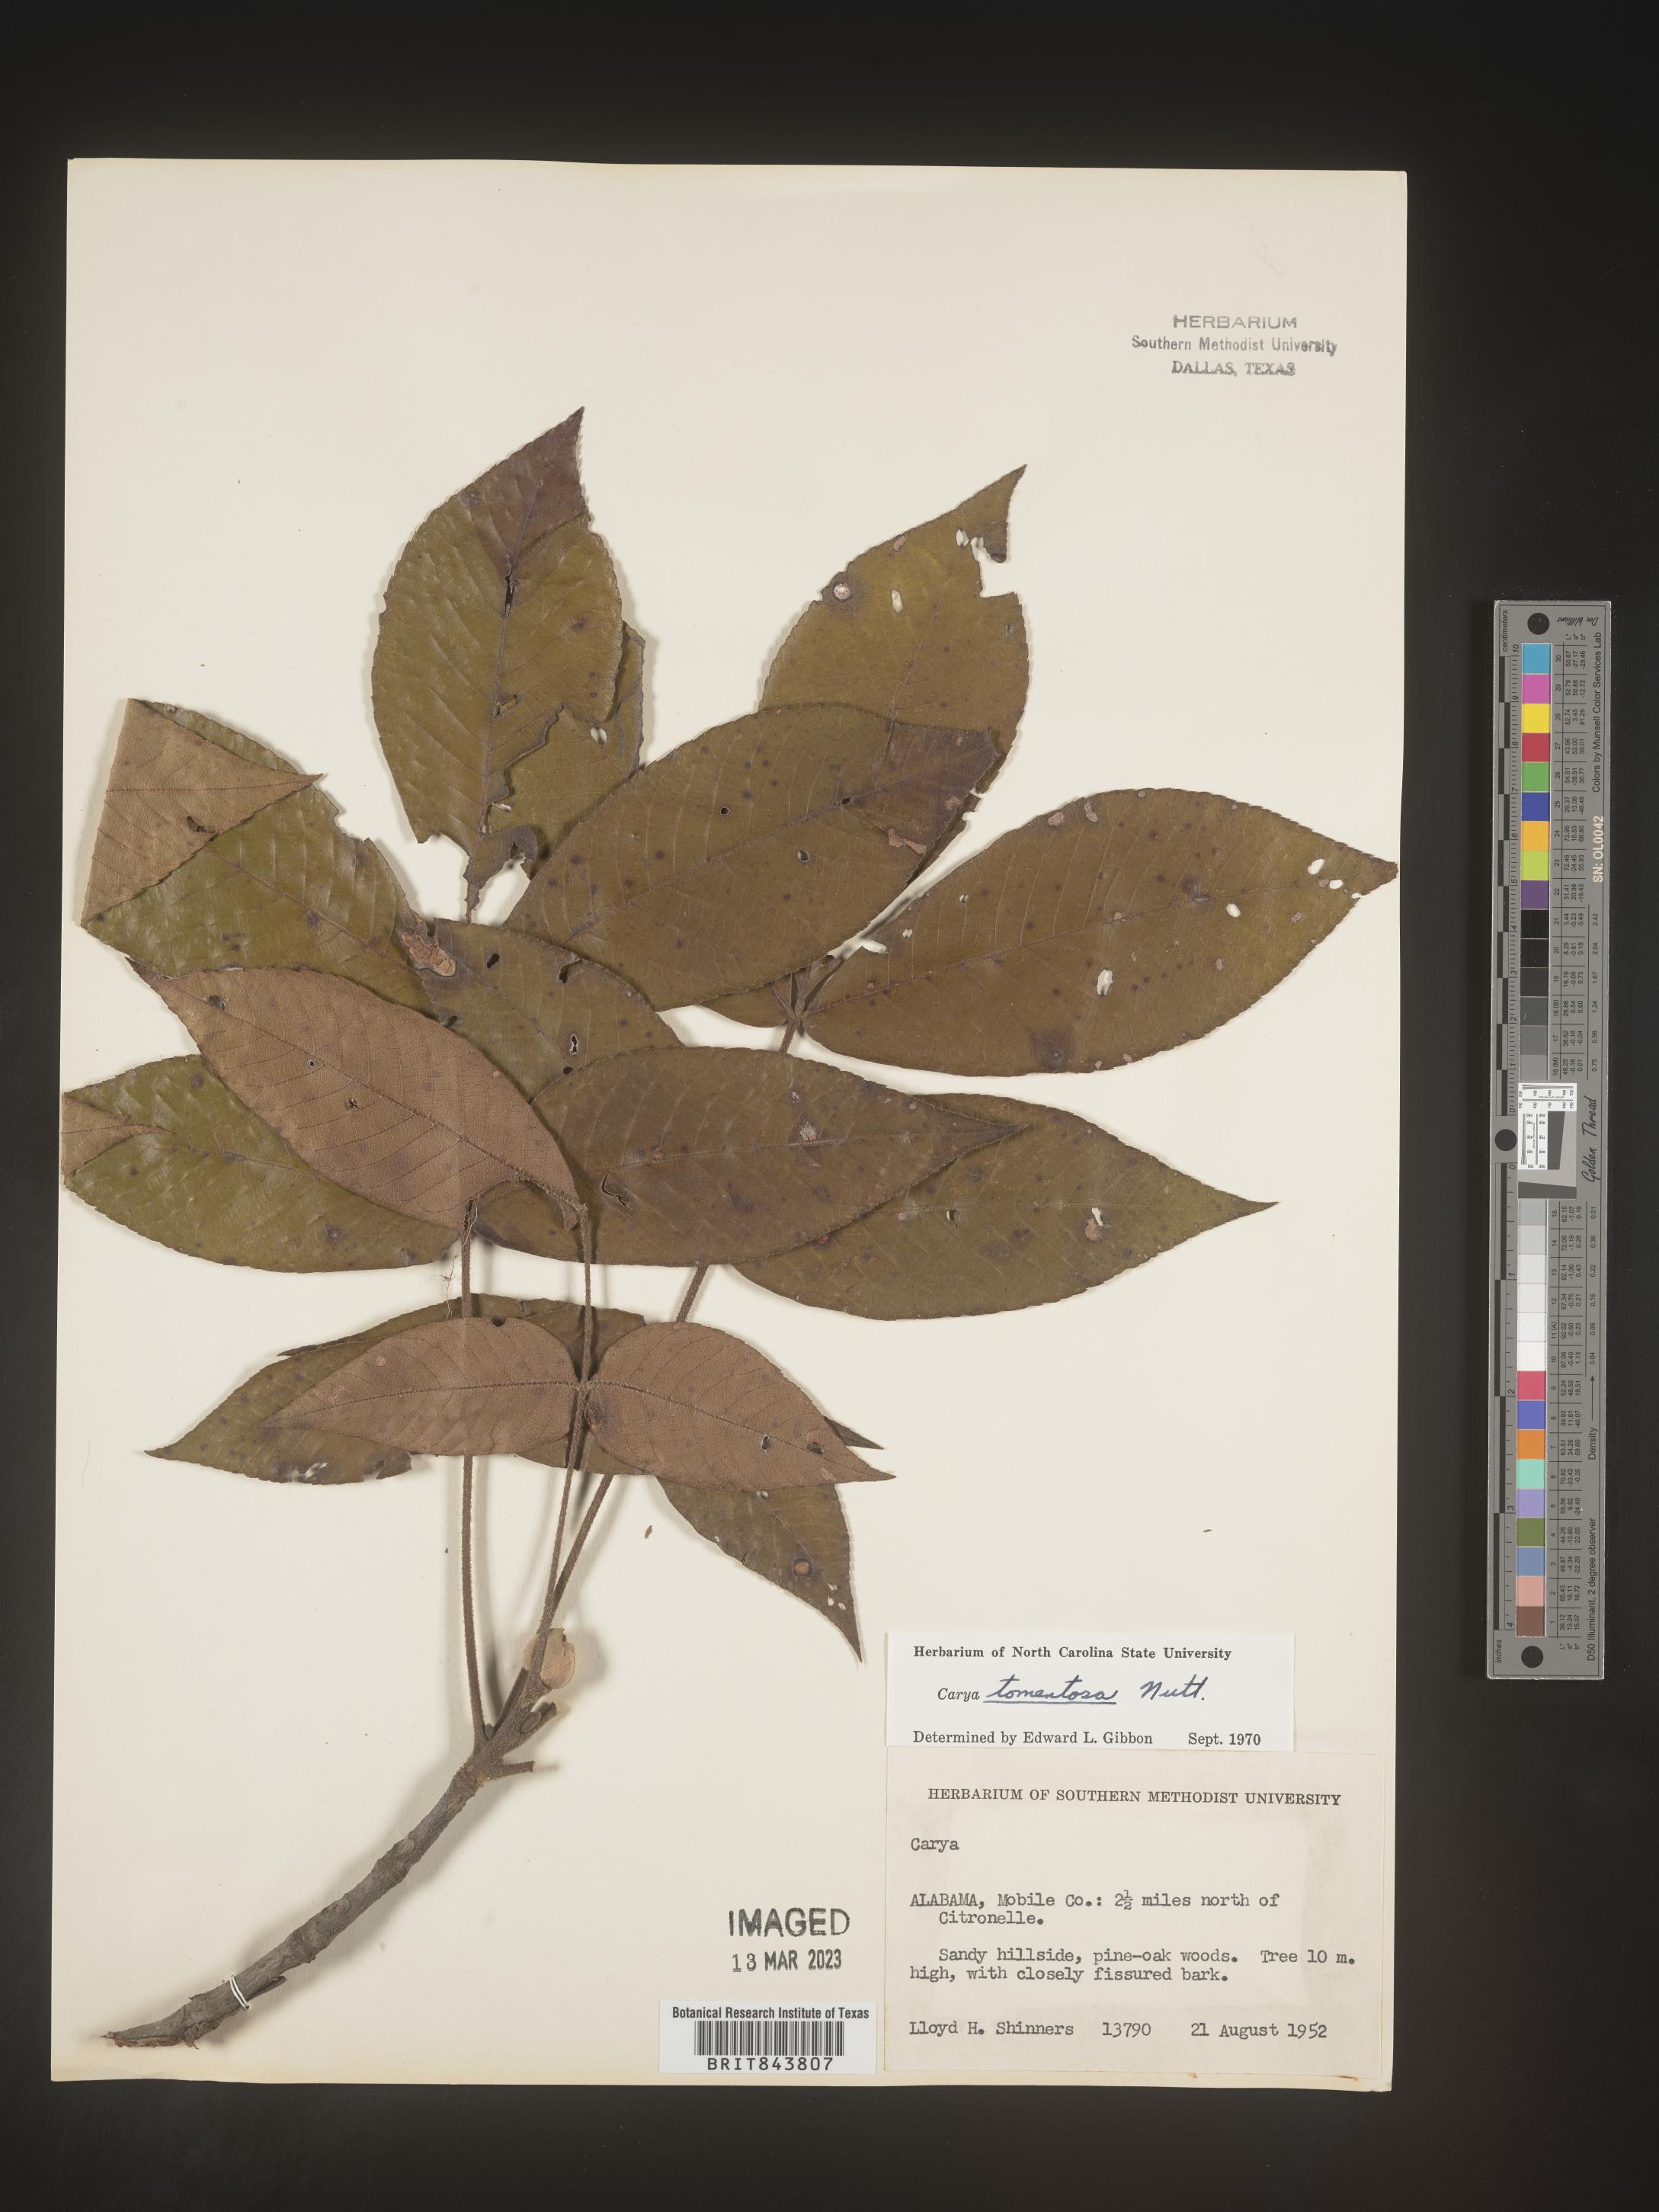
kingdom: Plantae
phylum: Tracheophyta
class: Magnoliopsida
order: Fagales
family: Juglandaceae
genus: Carya
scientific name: Carya alba
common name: Mockernut hickory
